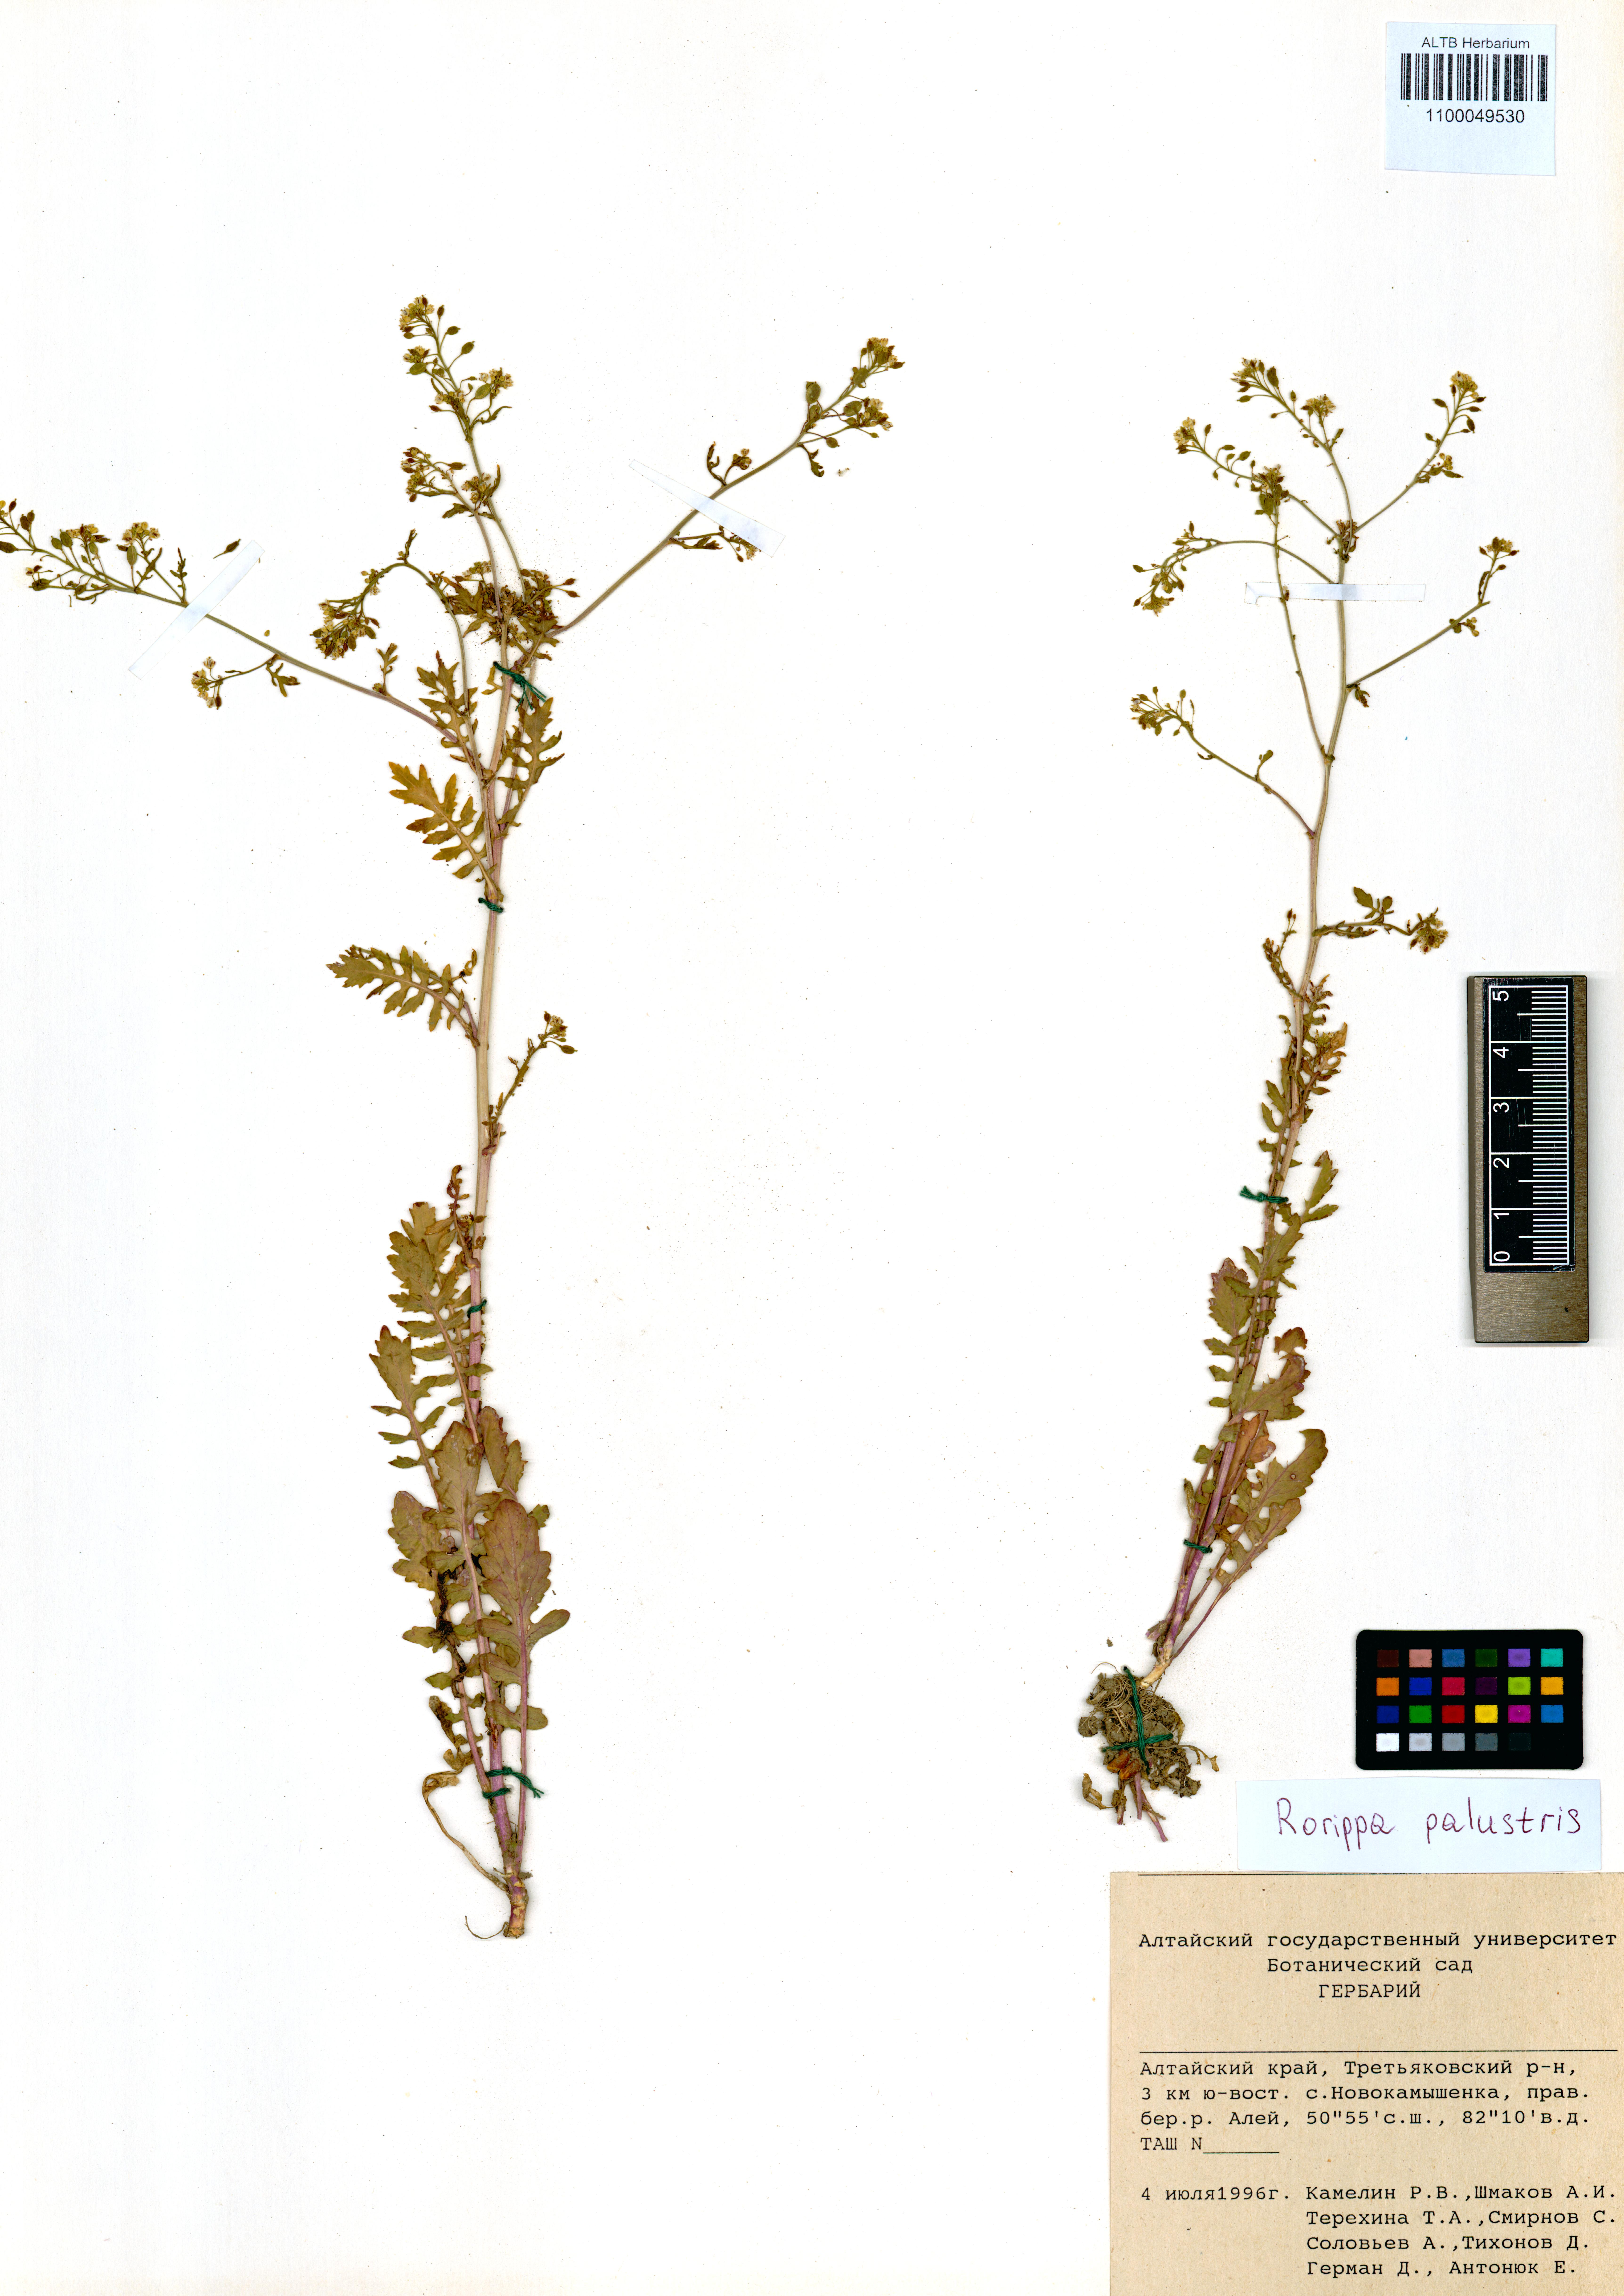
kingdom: Plantae
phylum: Tracheophyta
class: Magnoliopsida
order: Brassicales
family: Brassicaceae
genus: Rorippa
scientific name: Rorippa palustris
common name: Marsh yellow-cress
